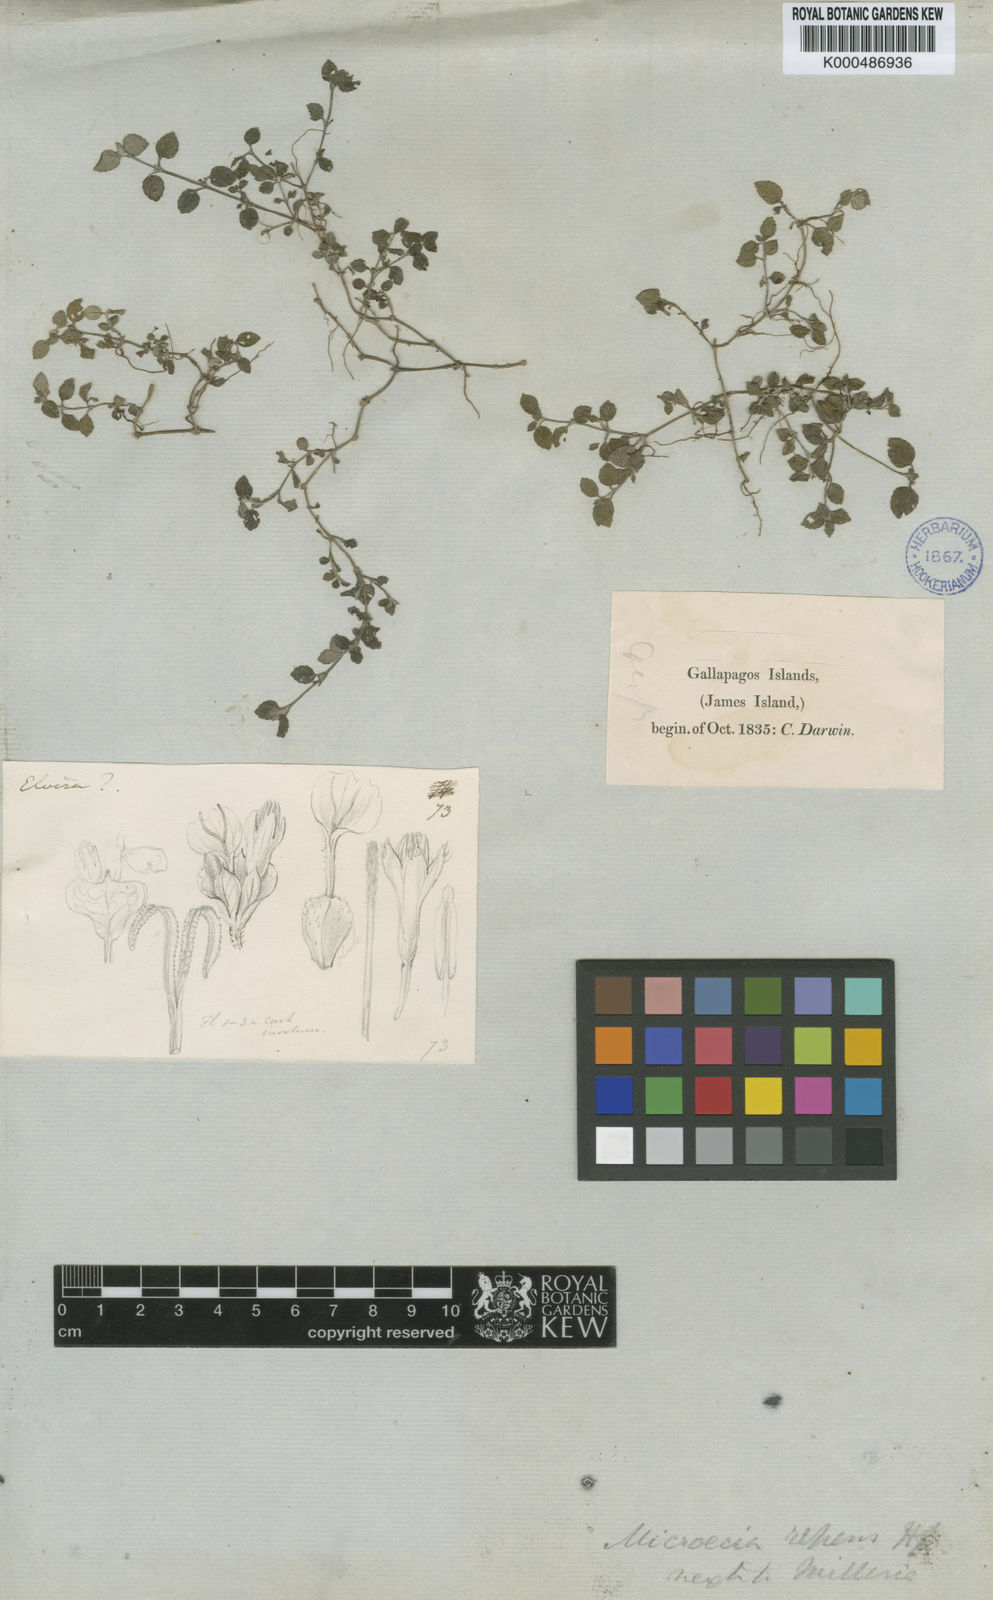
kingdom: Plantae
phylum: Tracheophyta
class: Magnoliopsida
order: Asterales
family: Asteraceae
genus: Delilia
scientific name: Delilia repens
